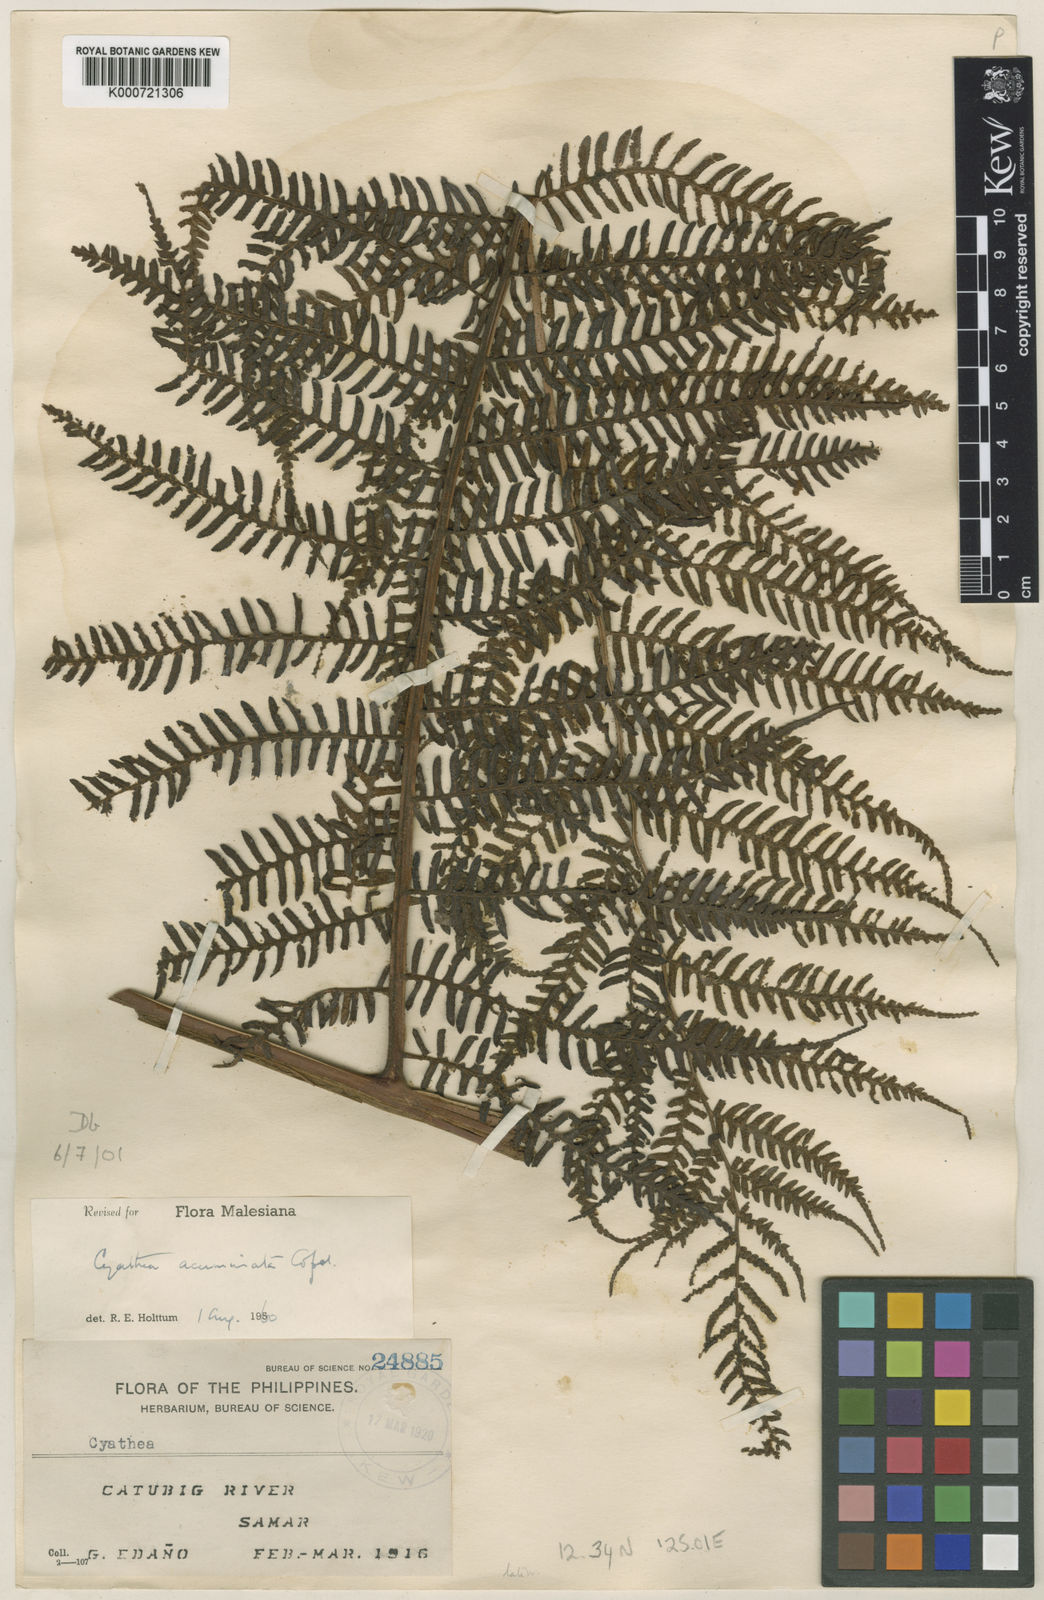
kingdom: Plantae
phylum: Tracheophyta
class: Polypodiopsida
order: Cyatheales
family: Cyatheaceae
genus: Alsophila
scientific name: Alsophila acuminata
